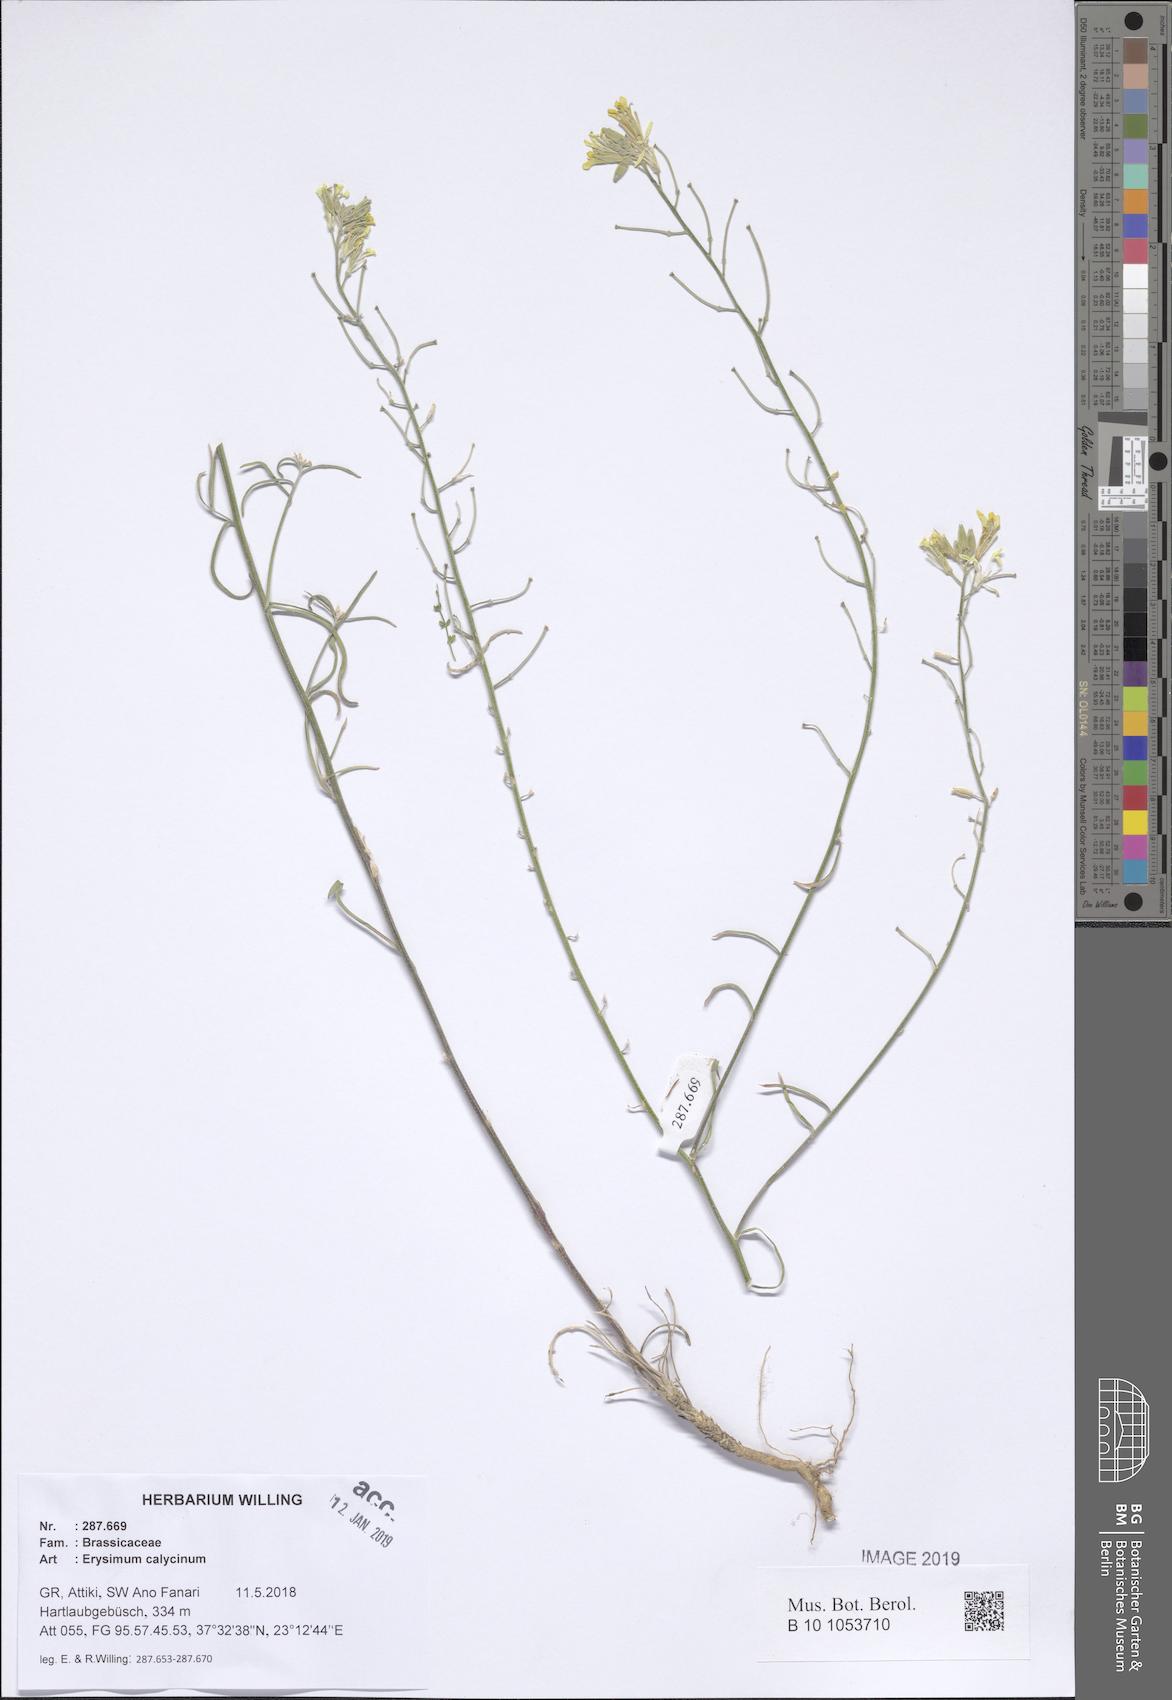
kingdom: Plantae
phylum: Tracheophyta
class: Magnoliopsida
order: Brassicales
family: Brassicaceae
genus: Erysimum
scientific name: Erysimum calycinum
